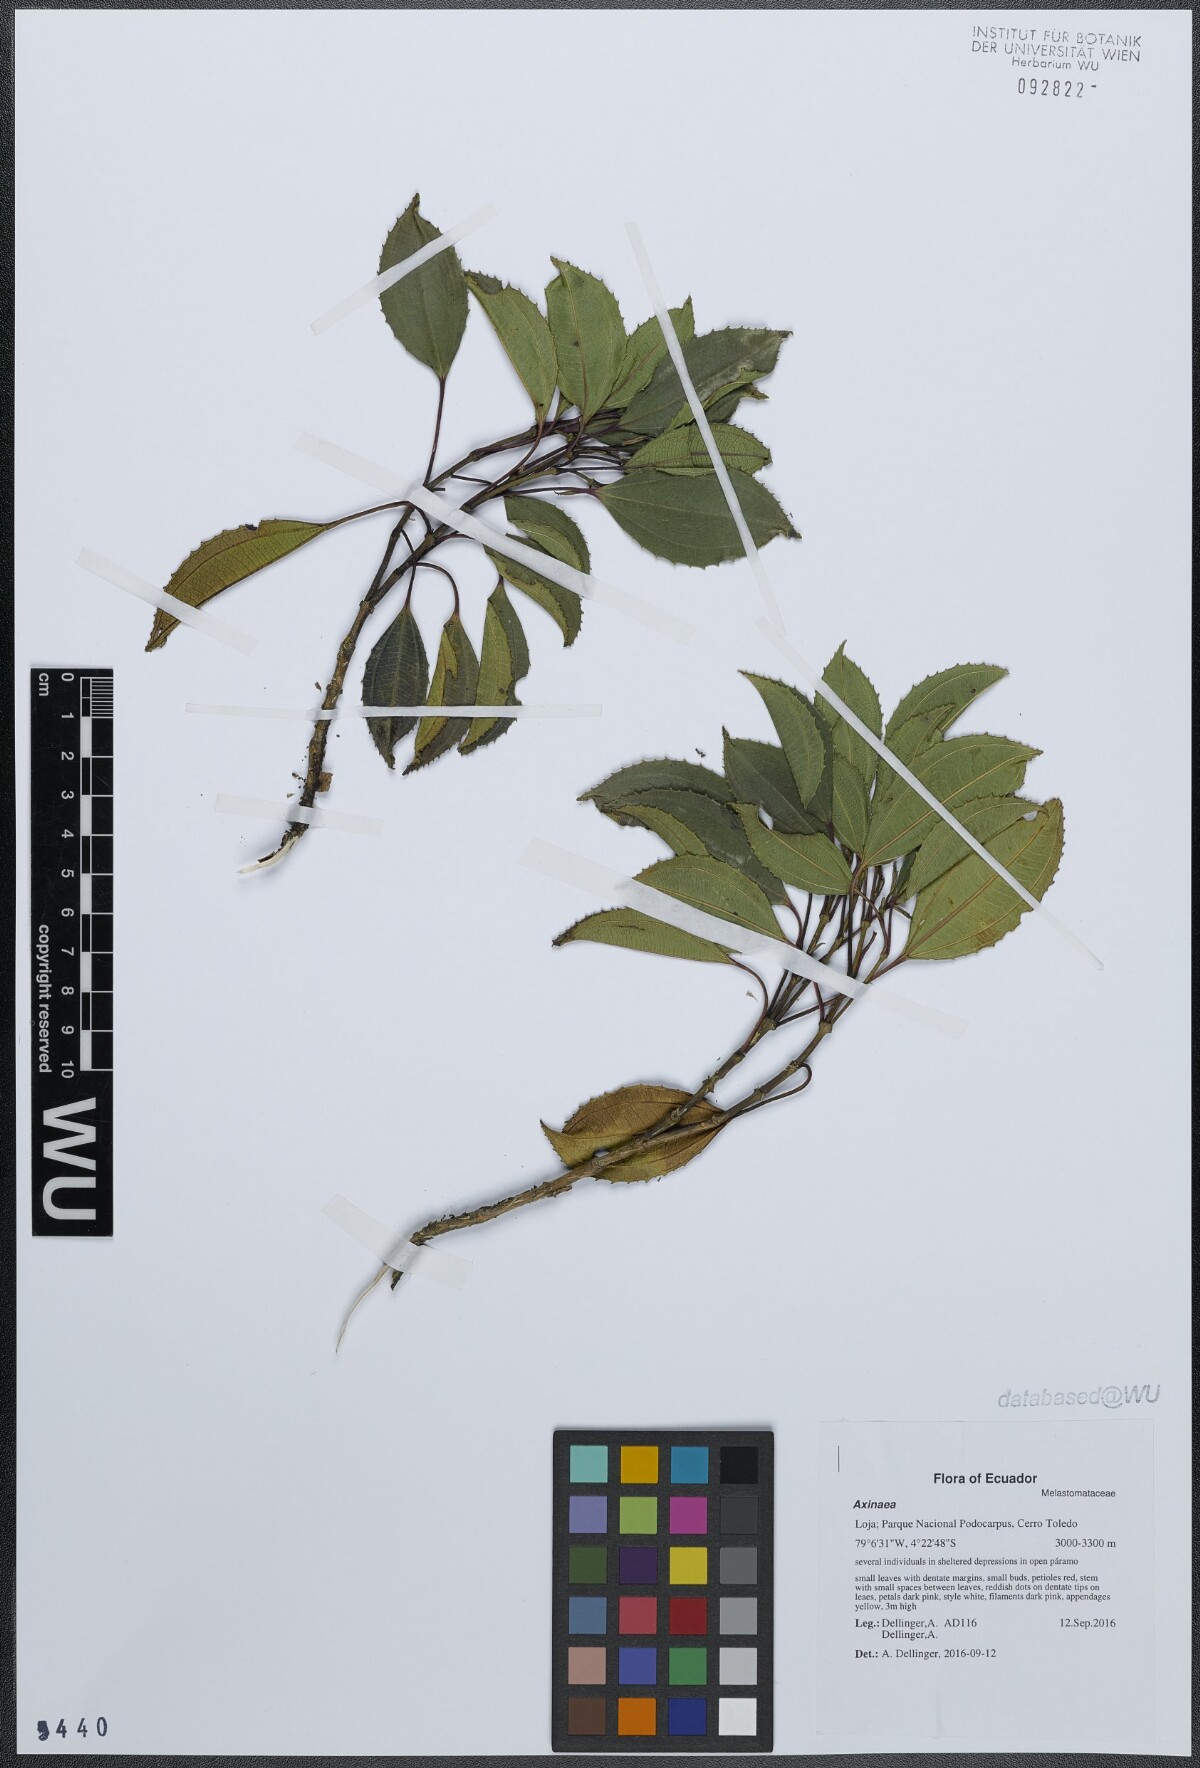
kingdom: Plantae
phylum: Tracheophyta
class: Magnoliopsida
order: Myrtales
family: Melastomataceae
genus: Axinaea
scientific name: Axinaea lawessonii
